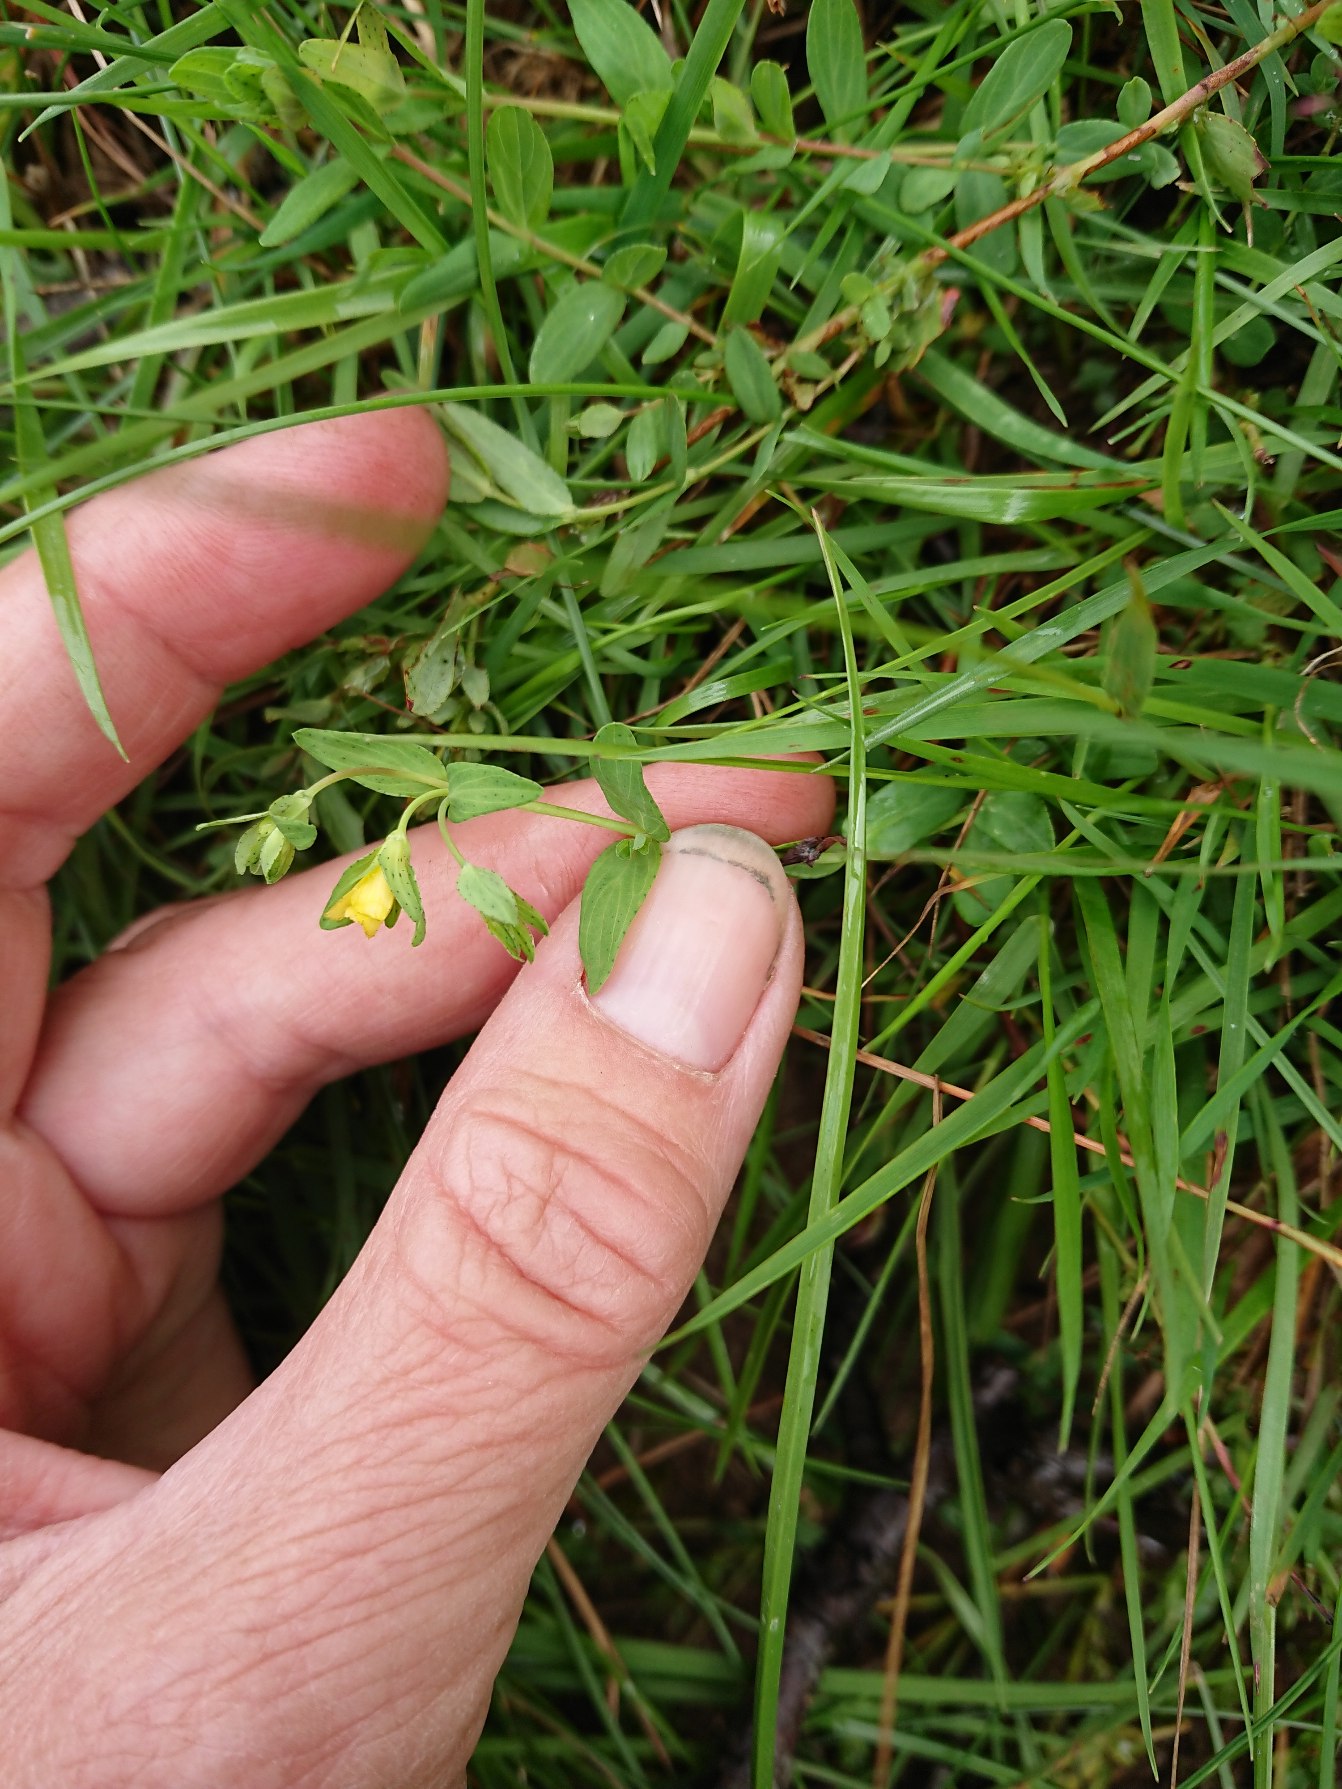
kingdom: Plantae
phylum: Tracheophyta
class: Magnoliopsida
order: Malpighiales
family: Hypericaceae
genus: Hypericum
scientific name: Hypericum humifusum
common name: Dværg-perikon
